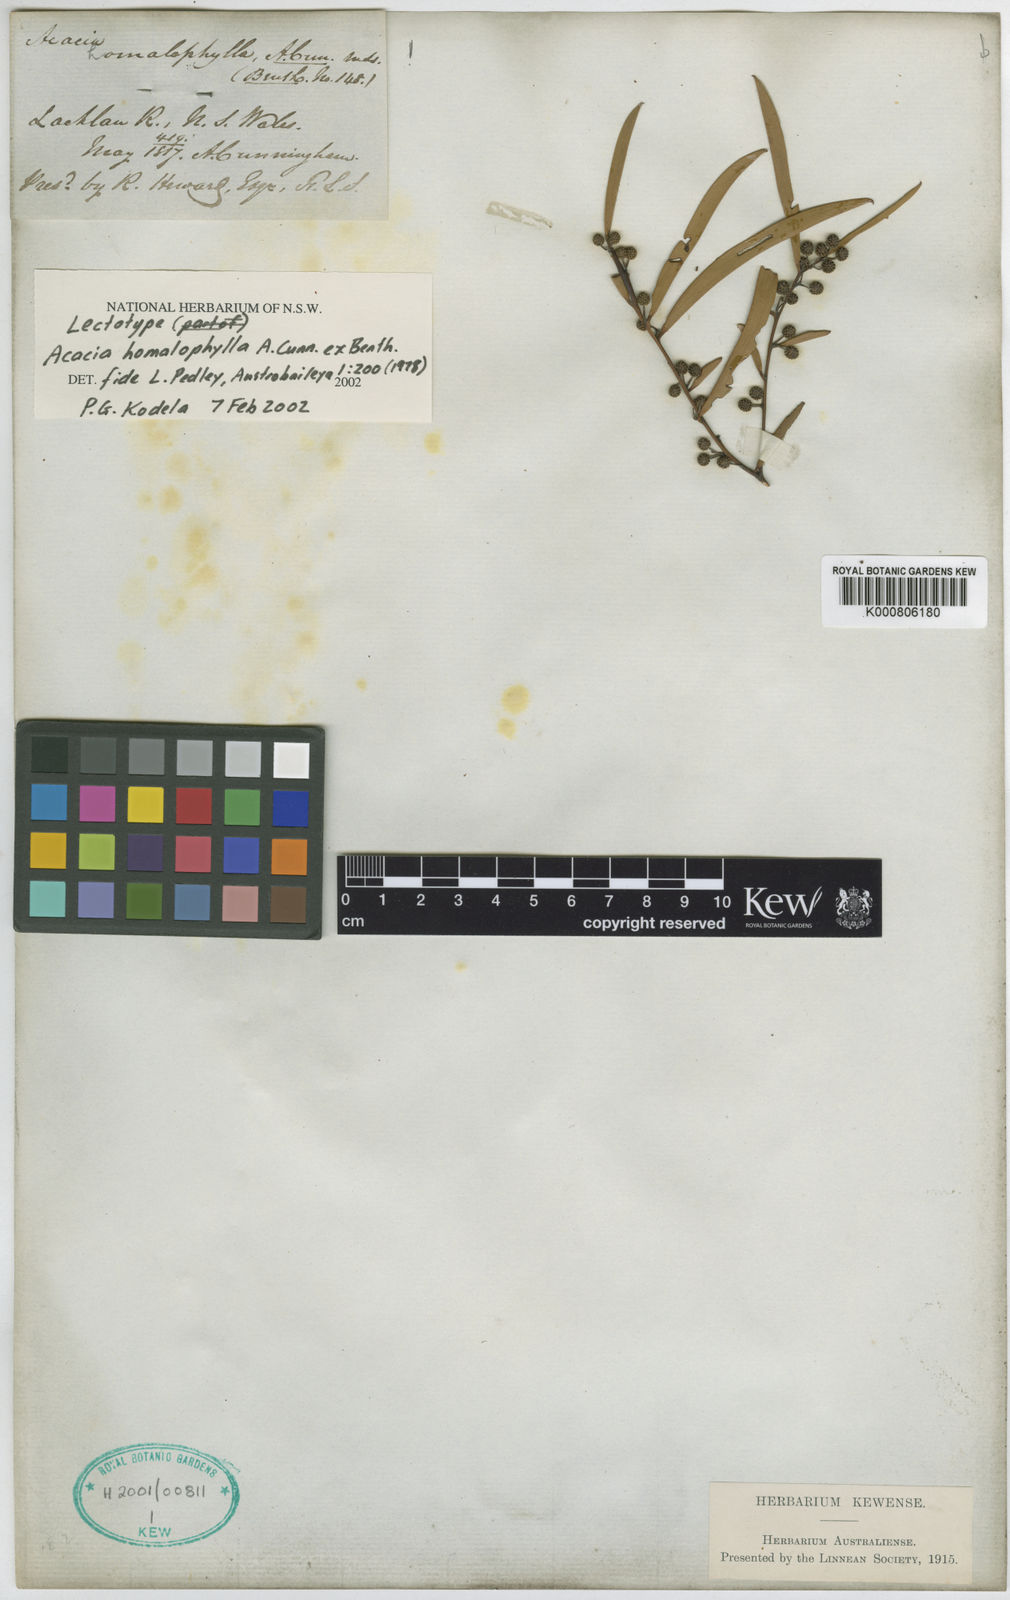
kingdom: Plantae
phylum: Tracheophyta
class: Magnoliopsida
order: Fabales
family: Fabaceae
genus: Acacia
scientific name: Acacia homalophylla
